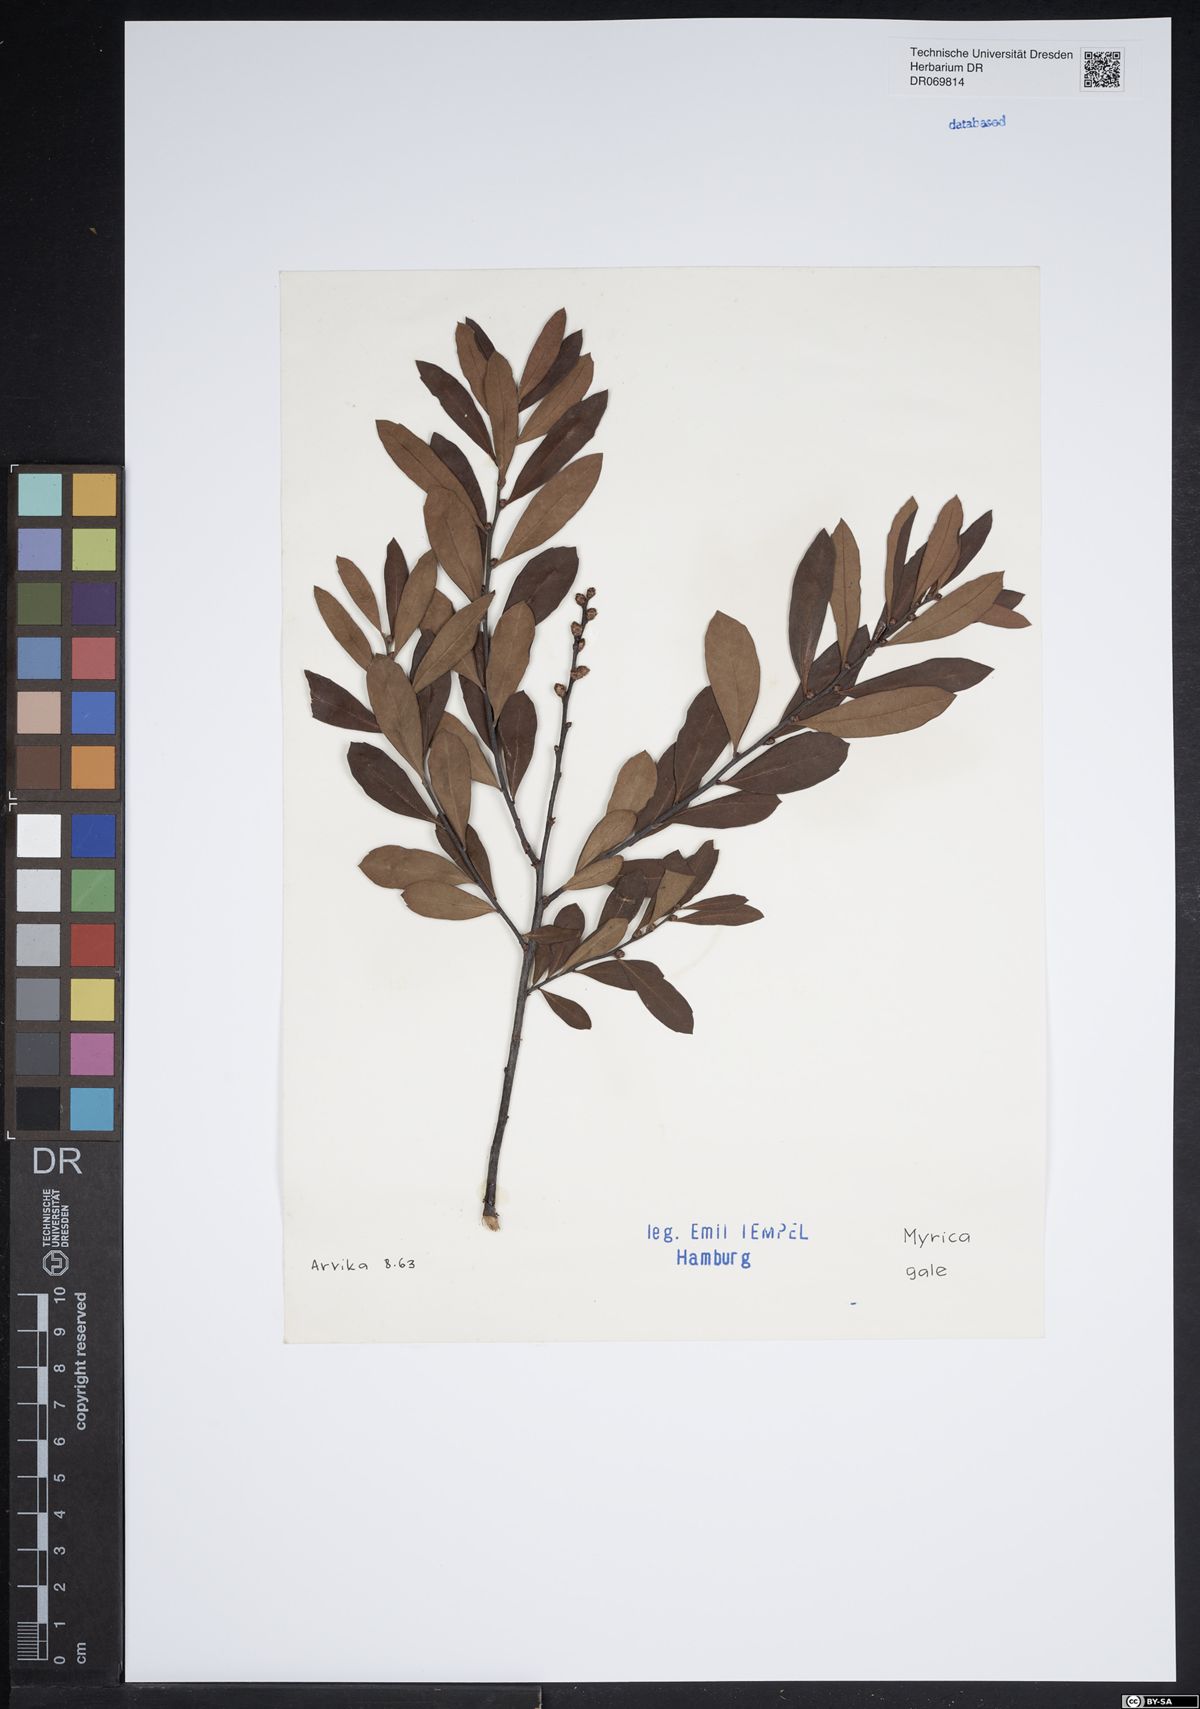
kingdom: Plantae
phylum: Tracheophyta
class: Magnoliopsida
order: Fagales
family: Myricaceae
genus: Myrica
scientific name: Myrica gale
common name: Sweet gale
